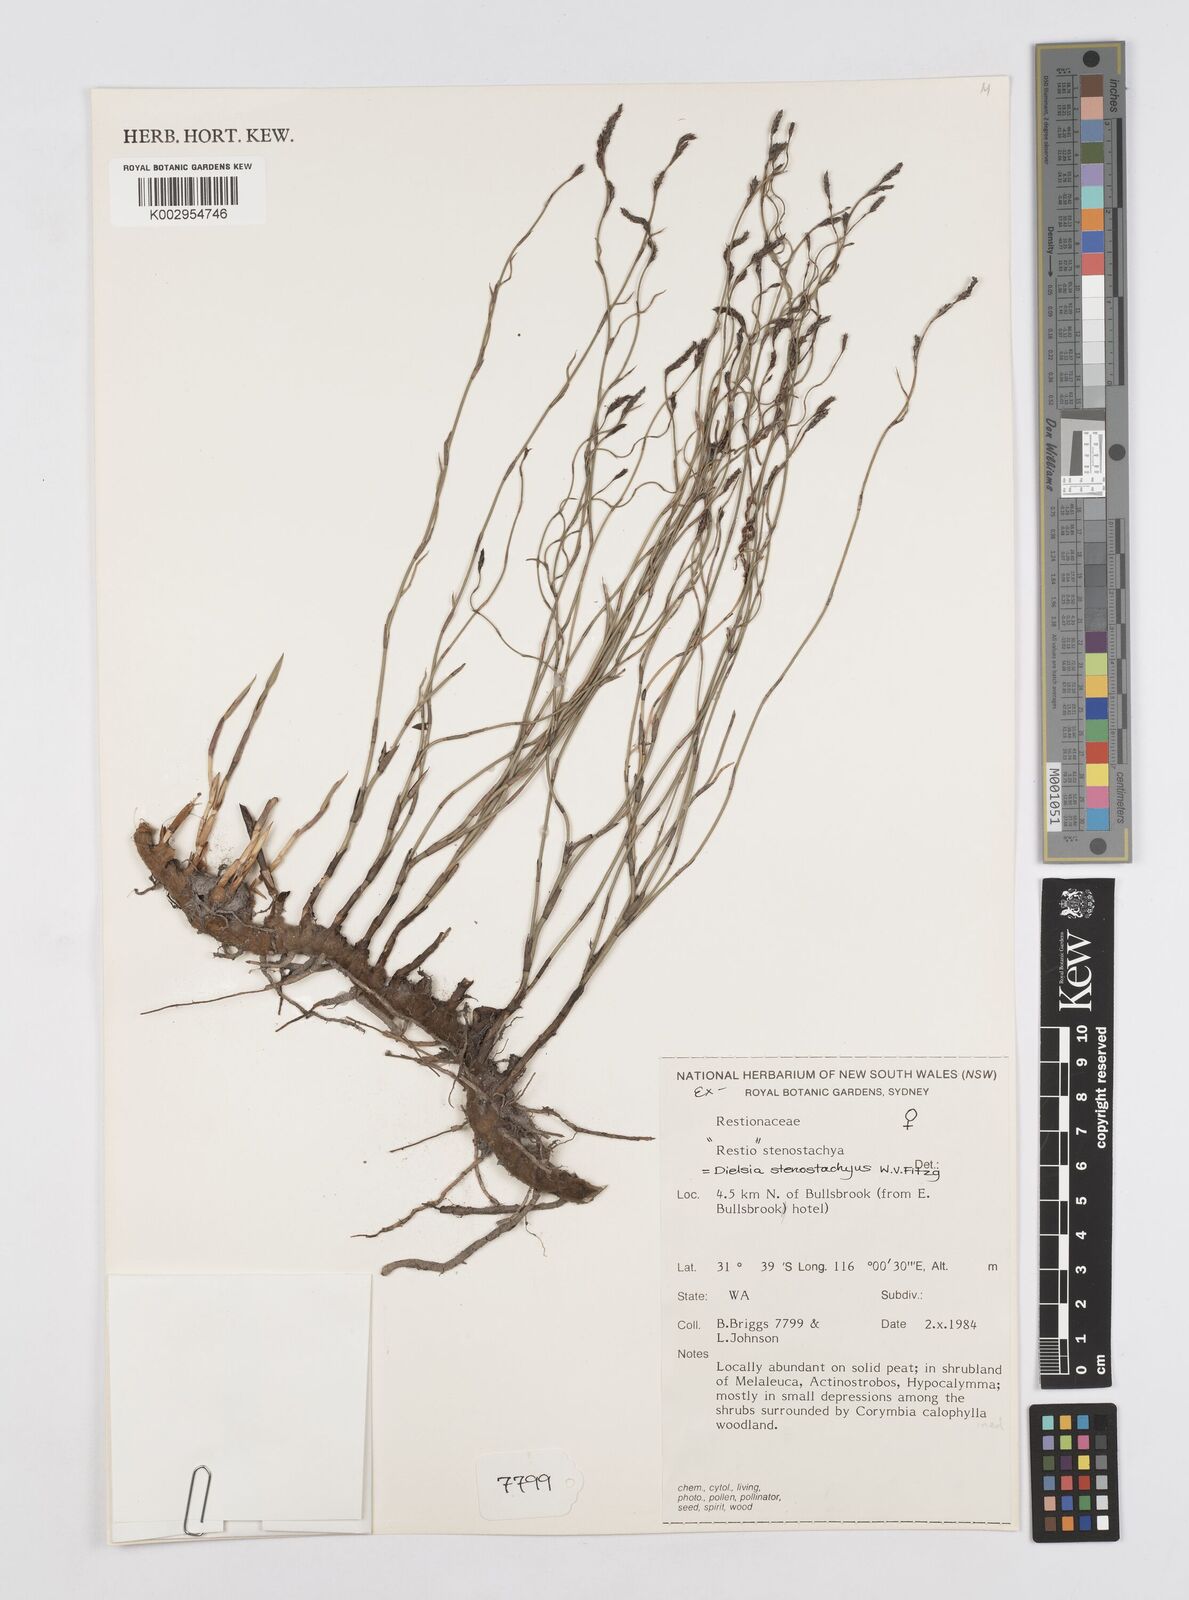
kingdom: Plantae
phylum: Tracheophyta
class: Liliopsida
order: Poales
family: Restionaceae
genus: Dielsia
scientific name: Dielsia stenostachya
